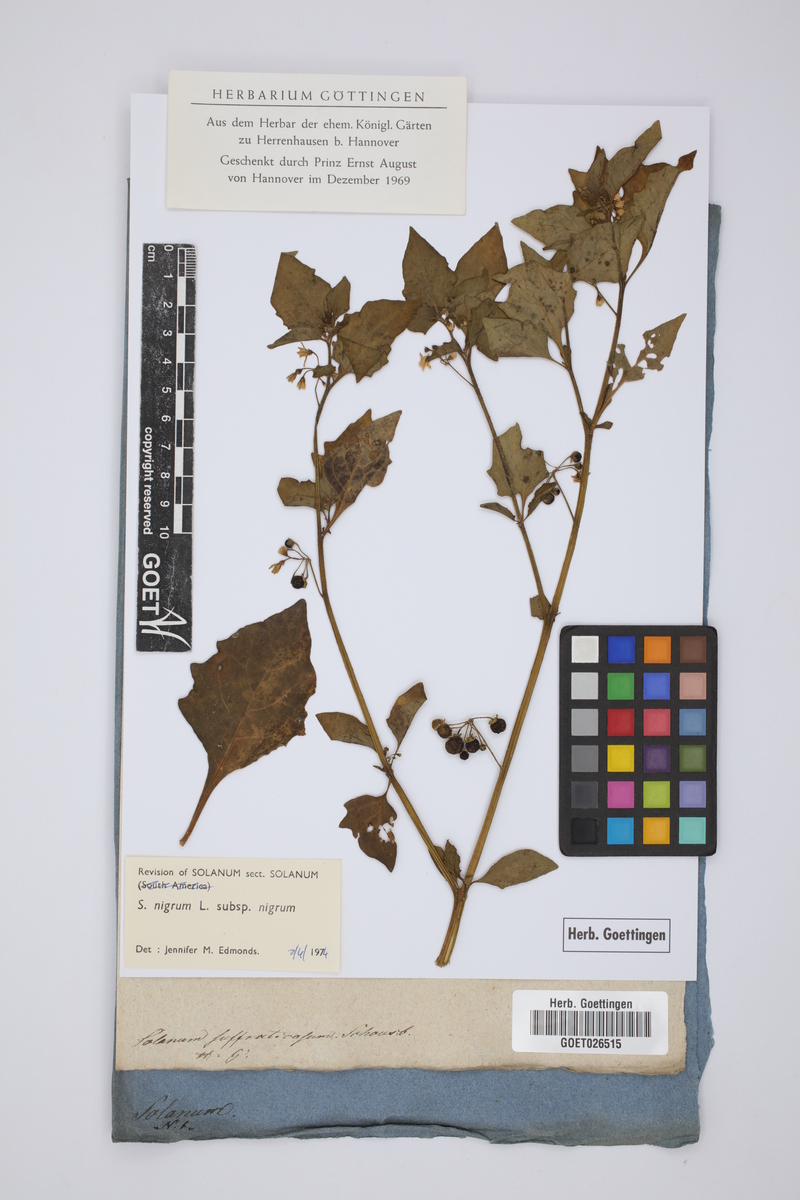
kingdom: Plantae
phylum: Tracheophyta
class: Magnoliopsida
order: Solanales
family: Solanaceae
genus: Solanum
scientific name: Solanum nigrum
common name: Black nightshade
